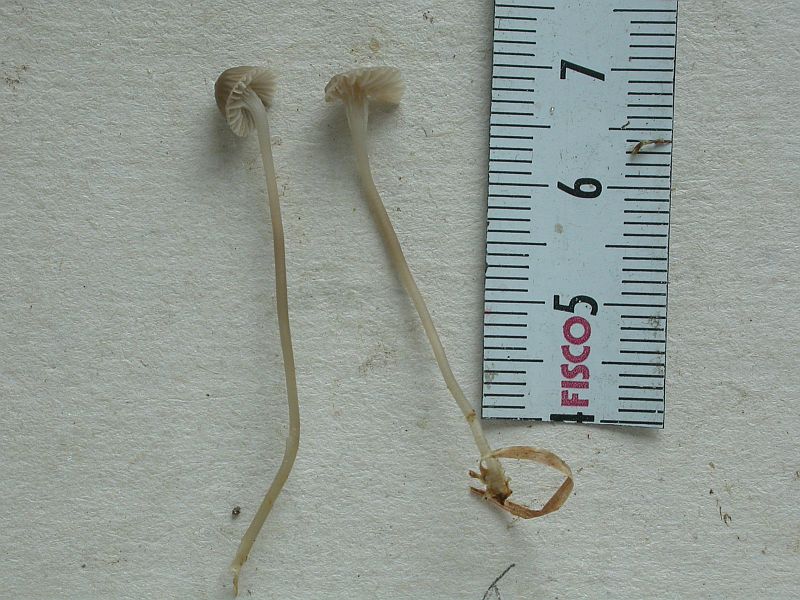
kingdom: Fungi
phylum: Basidiomycota
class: Agaricomycetes
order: Agaricales
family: Mycenaceae
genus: Mycena
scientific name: Mycena cinerella
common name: mel-huesvamp
